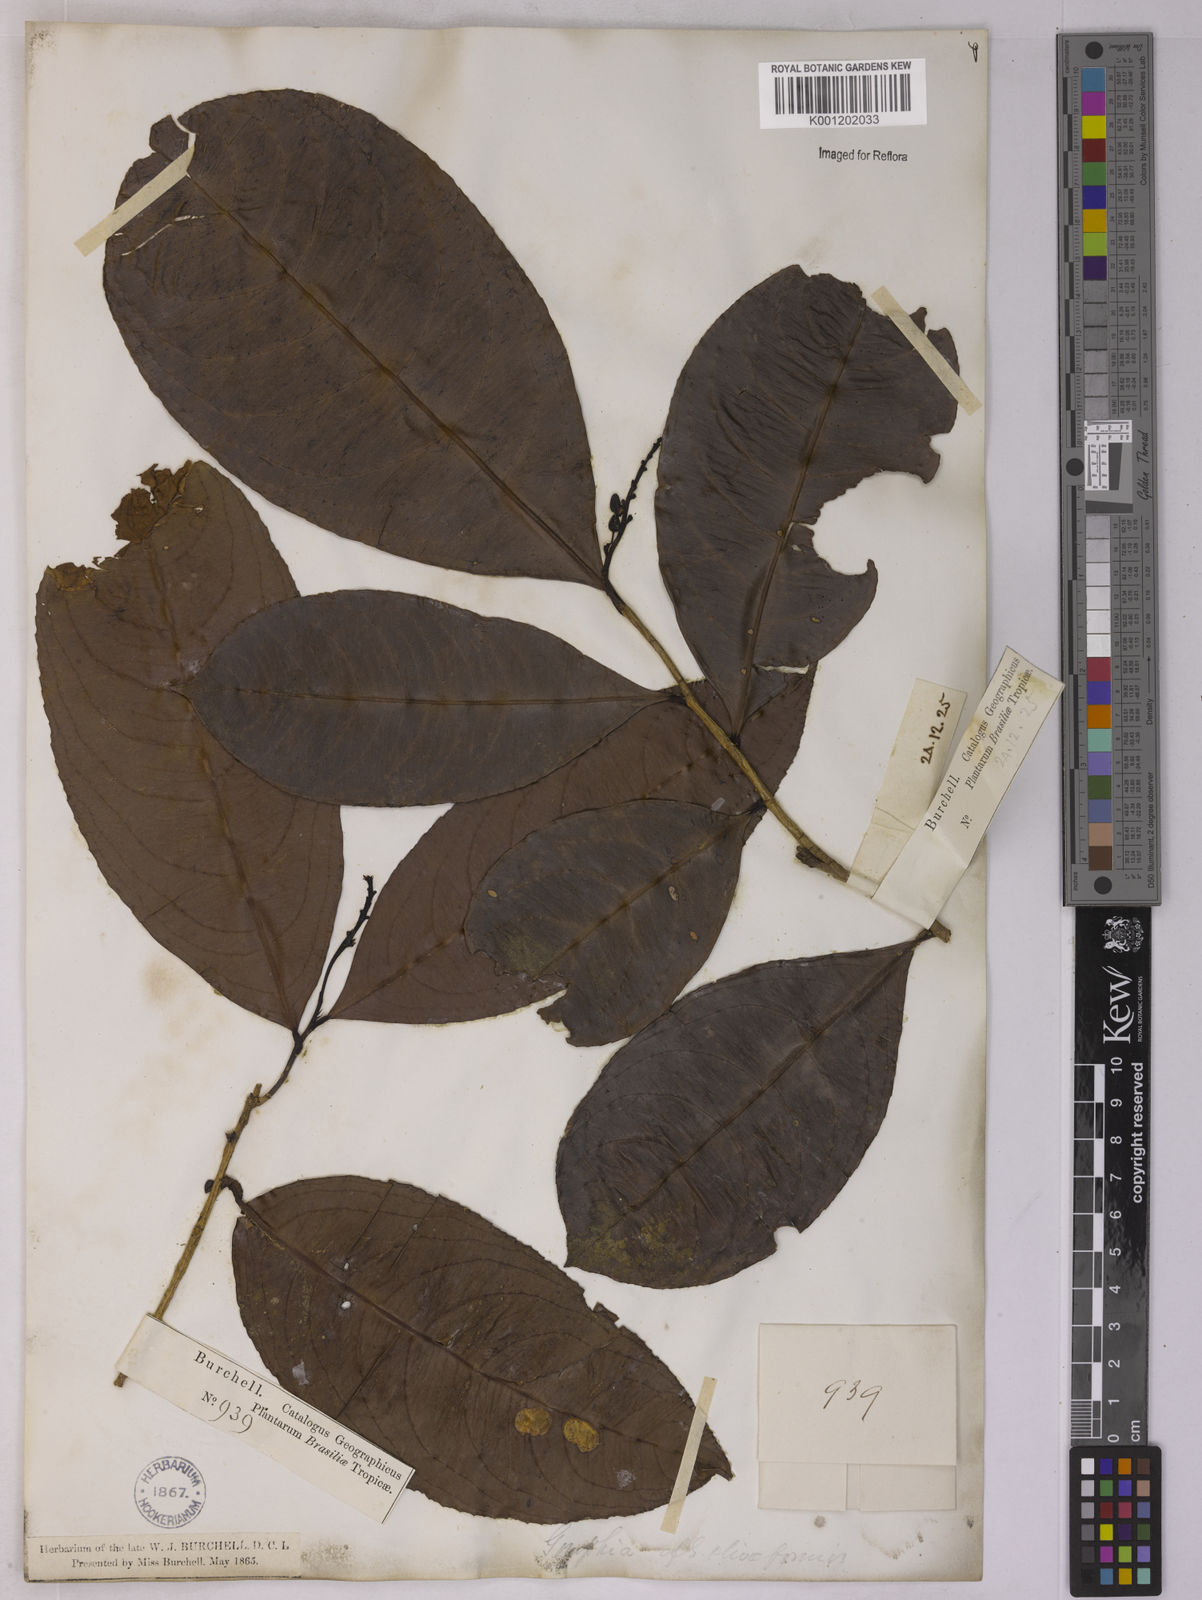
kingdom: Plantae
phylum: Tracheophyta
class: Magnoliopsida
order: Malpighiales
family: Ochnaceae
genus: Ouratea
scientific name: Ouratea oliviformis
